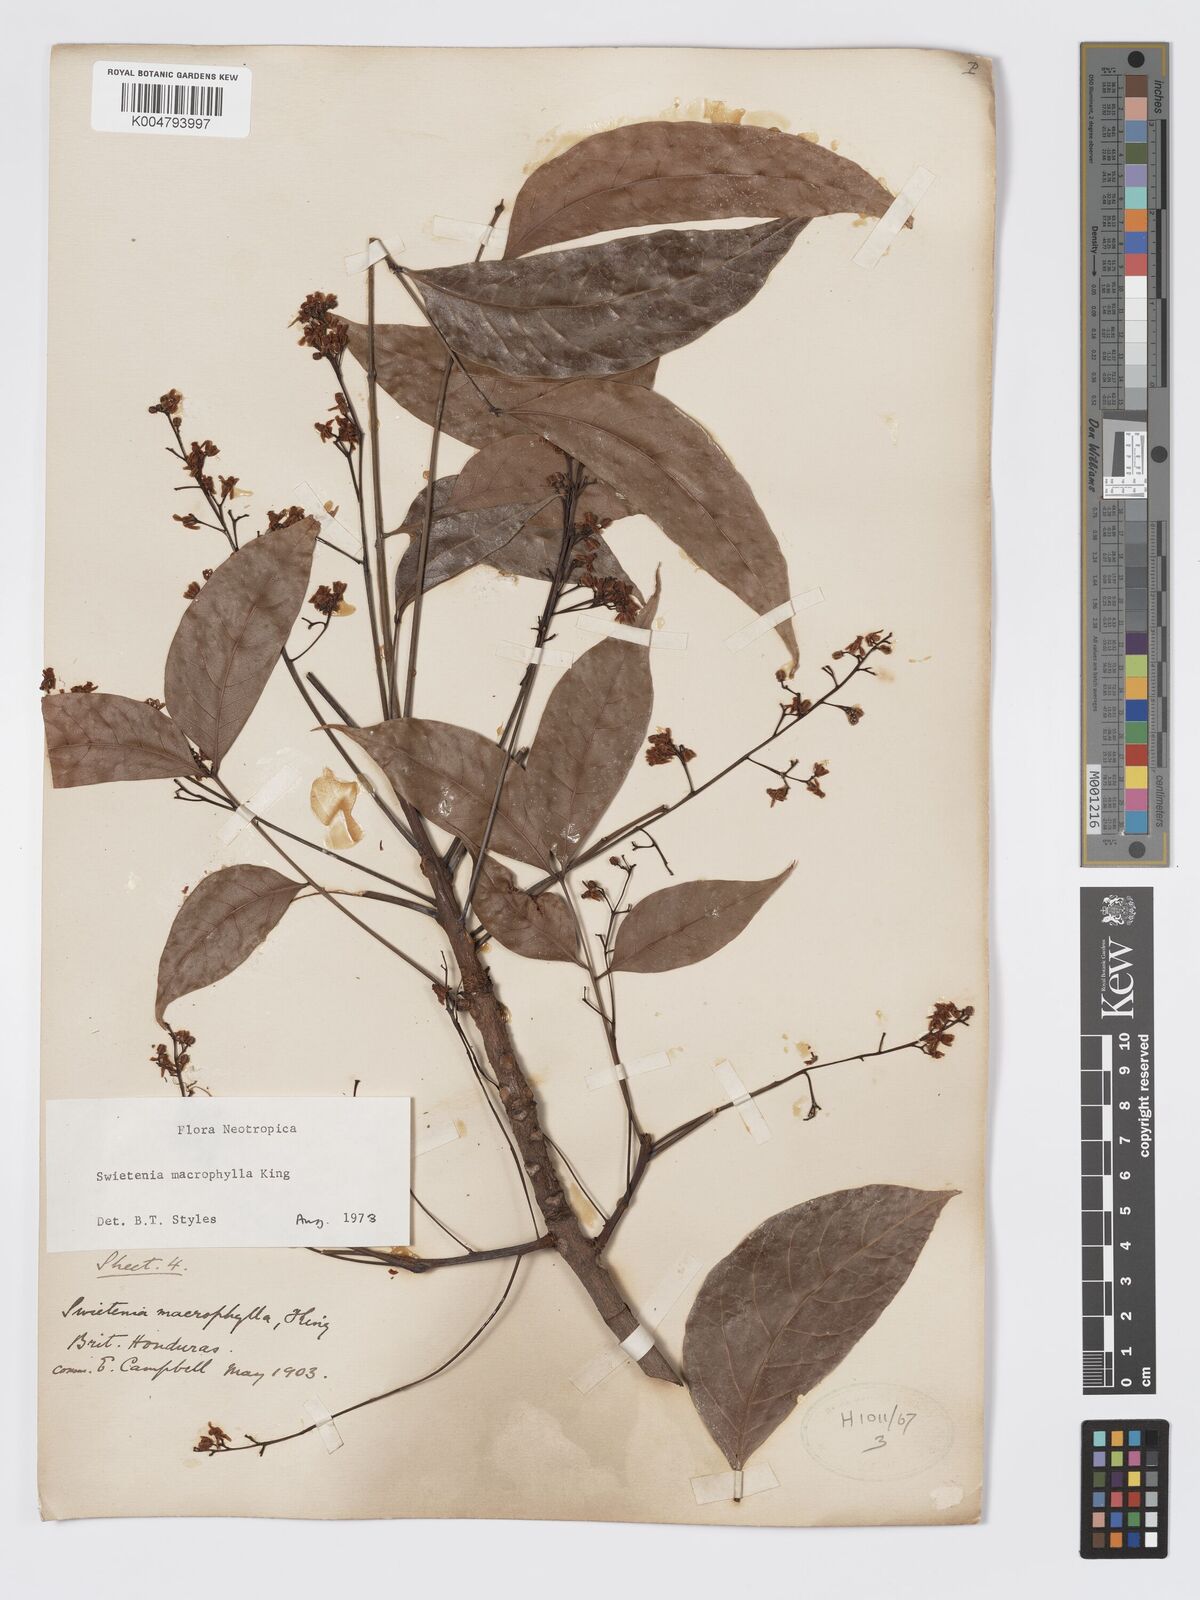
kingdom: Plantae
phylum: Tracheophyta
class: Magnoliopsida
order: Sapindales
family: Meliaceae
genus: Swietenia
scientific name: Swietenia macrophylla
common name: Honduras mahogany
